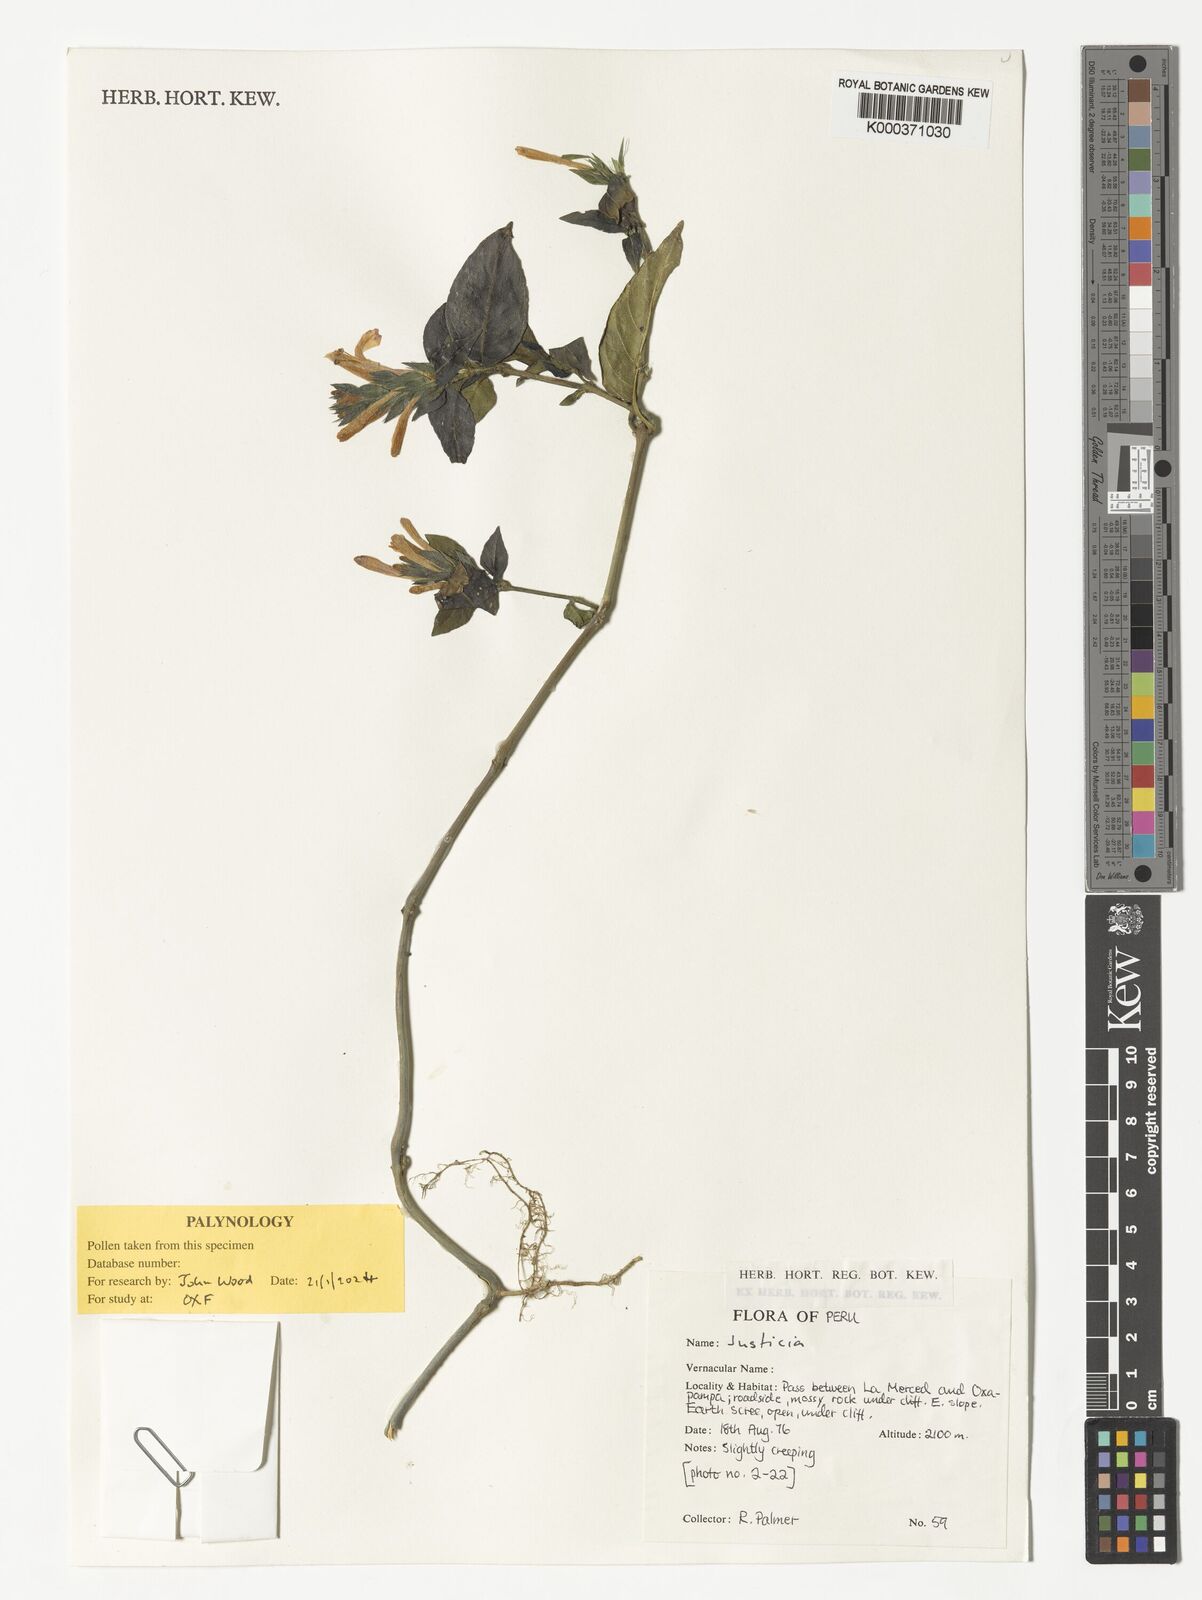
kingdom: Plantae
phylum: Tracheophyta
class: Magnoliopsida
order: Lamiales
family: Acanthaceae
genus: Justicia
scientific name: Justicia
